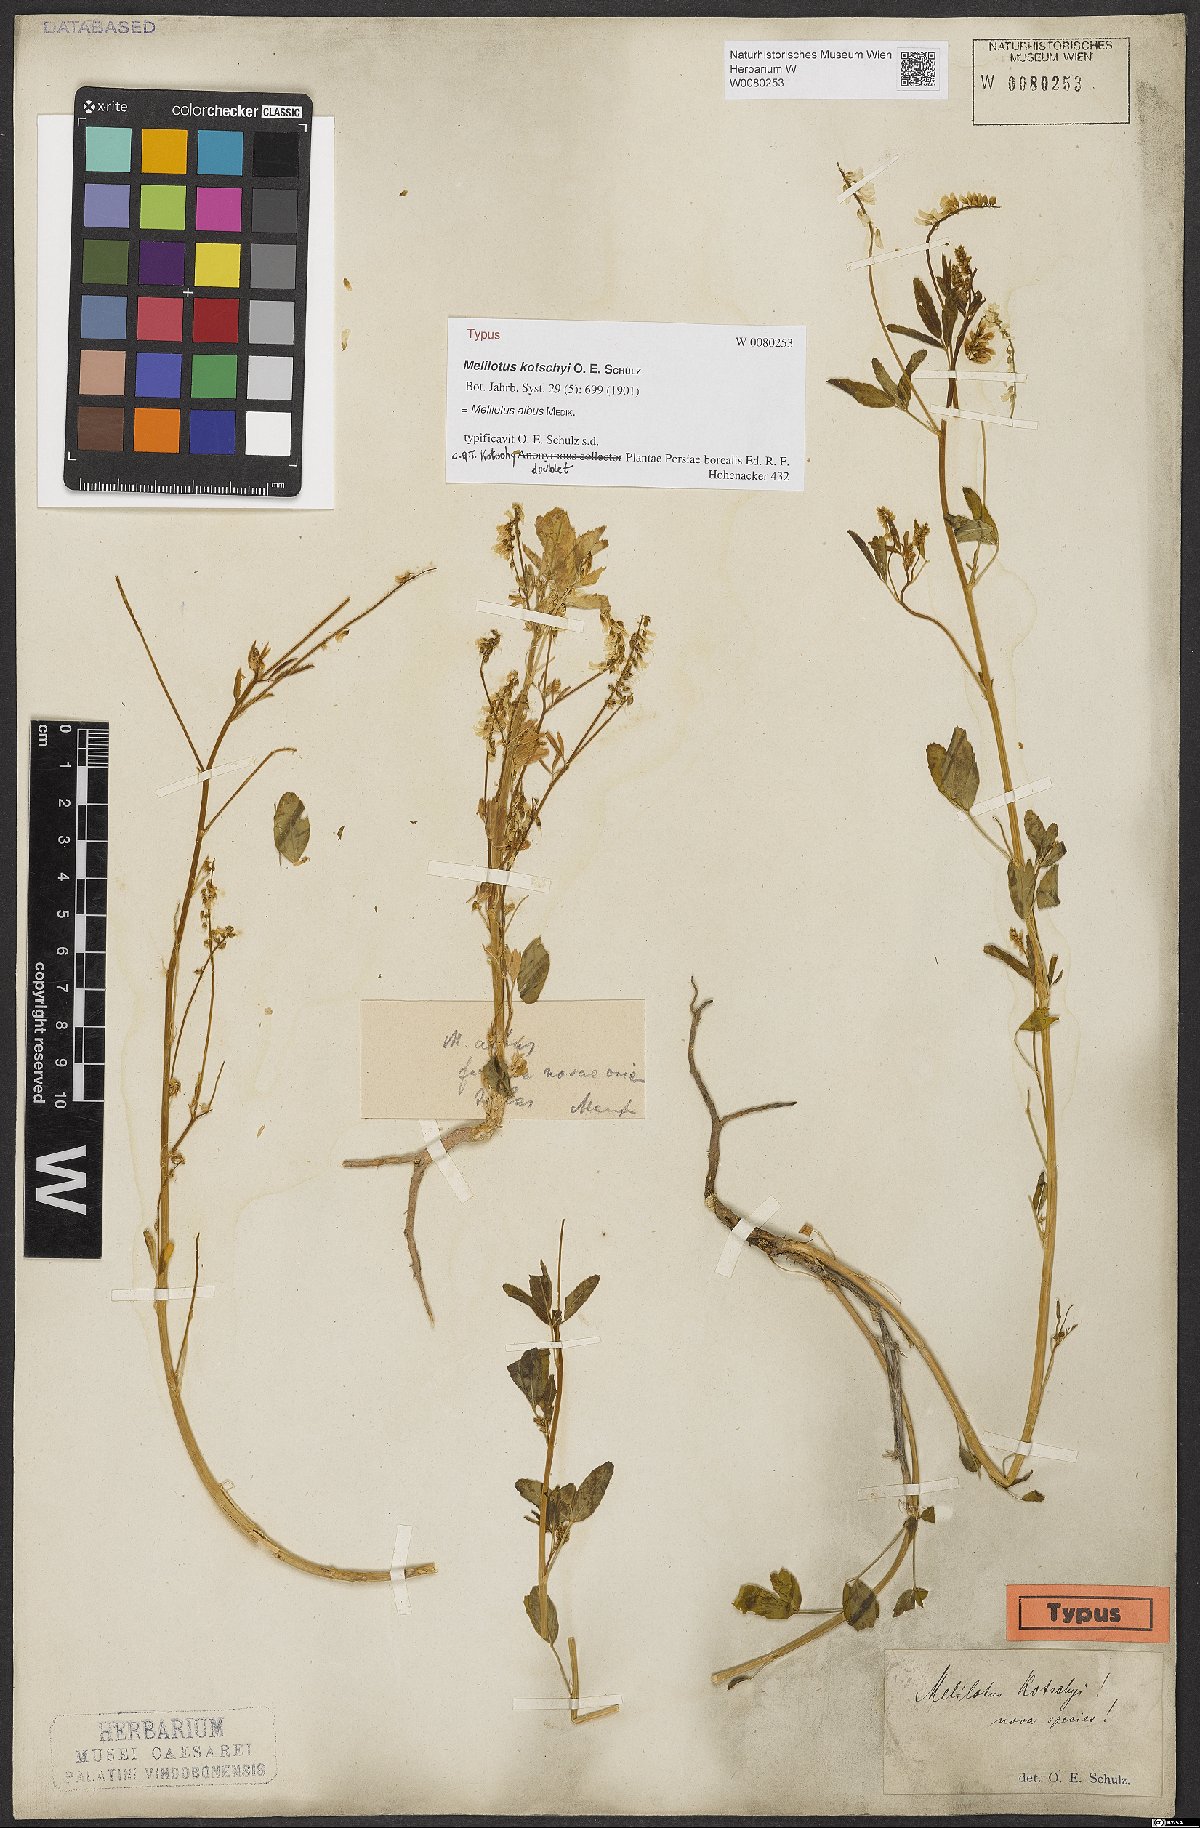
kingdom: Plantae
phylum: Tracheophyta
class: Magnoliopsida
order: Fabales
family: Fabaceae
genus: Melilotus
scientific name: Melilotus albus
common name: White melilot
